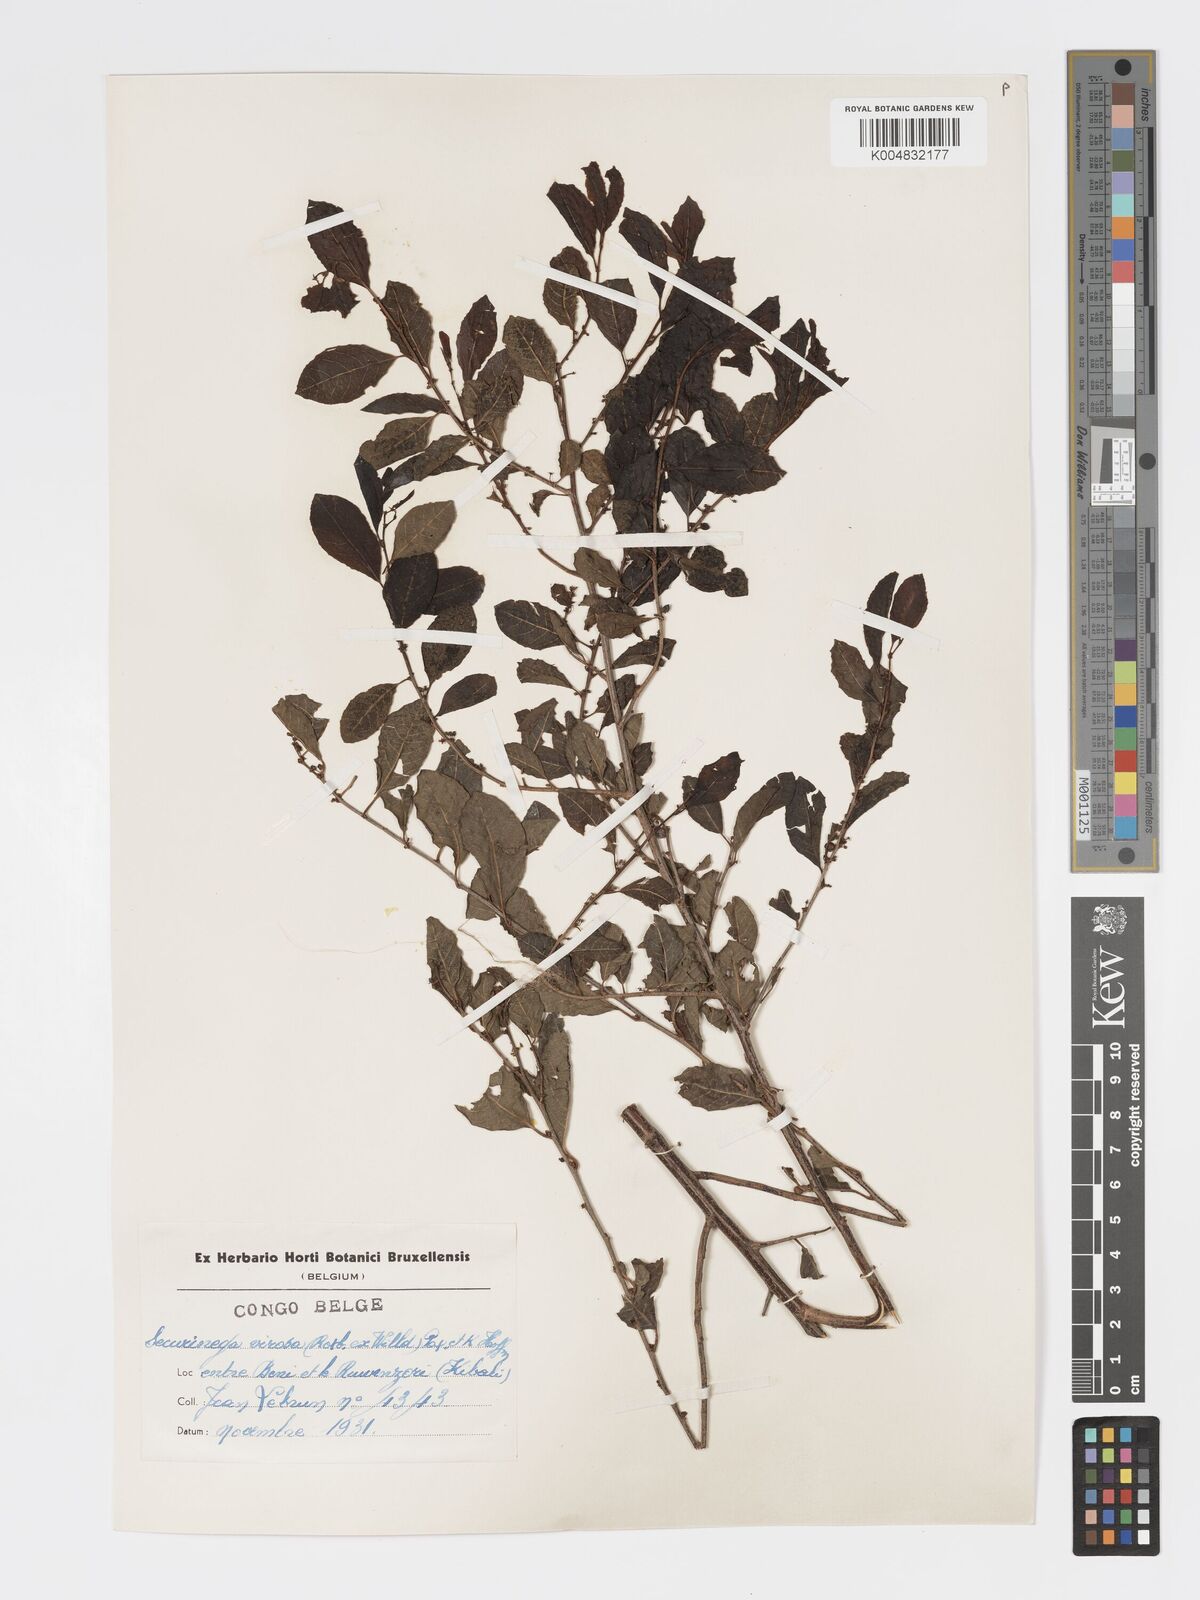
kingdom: Plantae
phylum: Tracheophyta
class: Magnoliopsida
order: Malpighiales
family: Phyllanthaceae
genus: Flueggea
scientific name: Flueggea virosa
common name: Common bushweed
